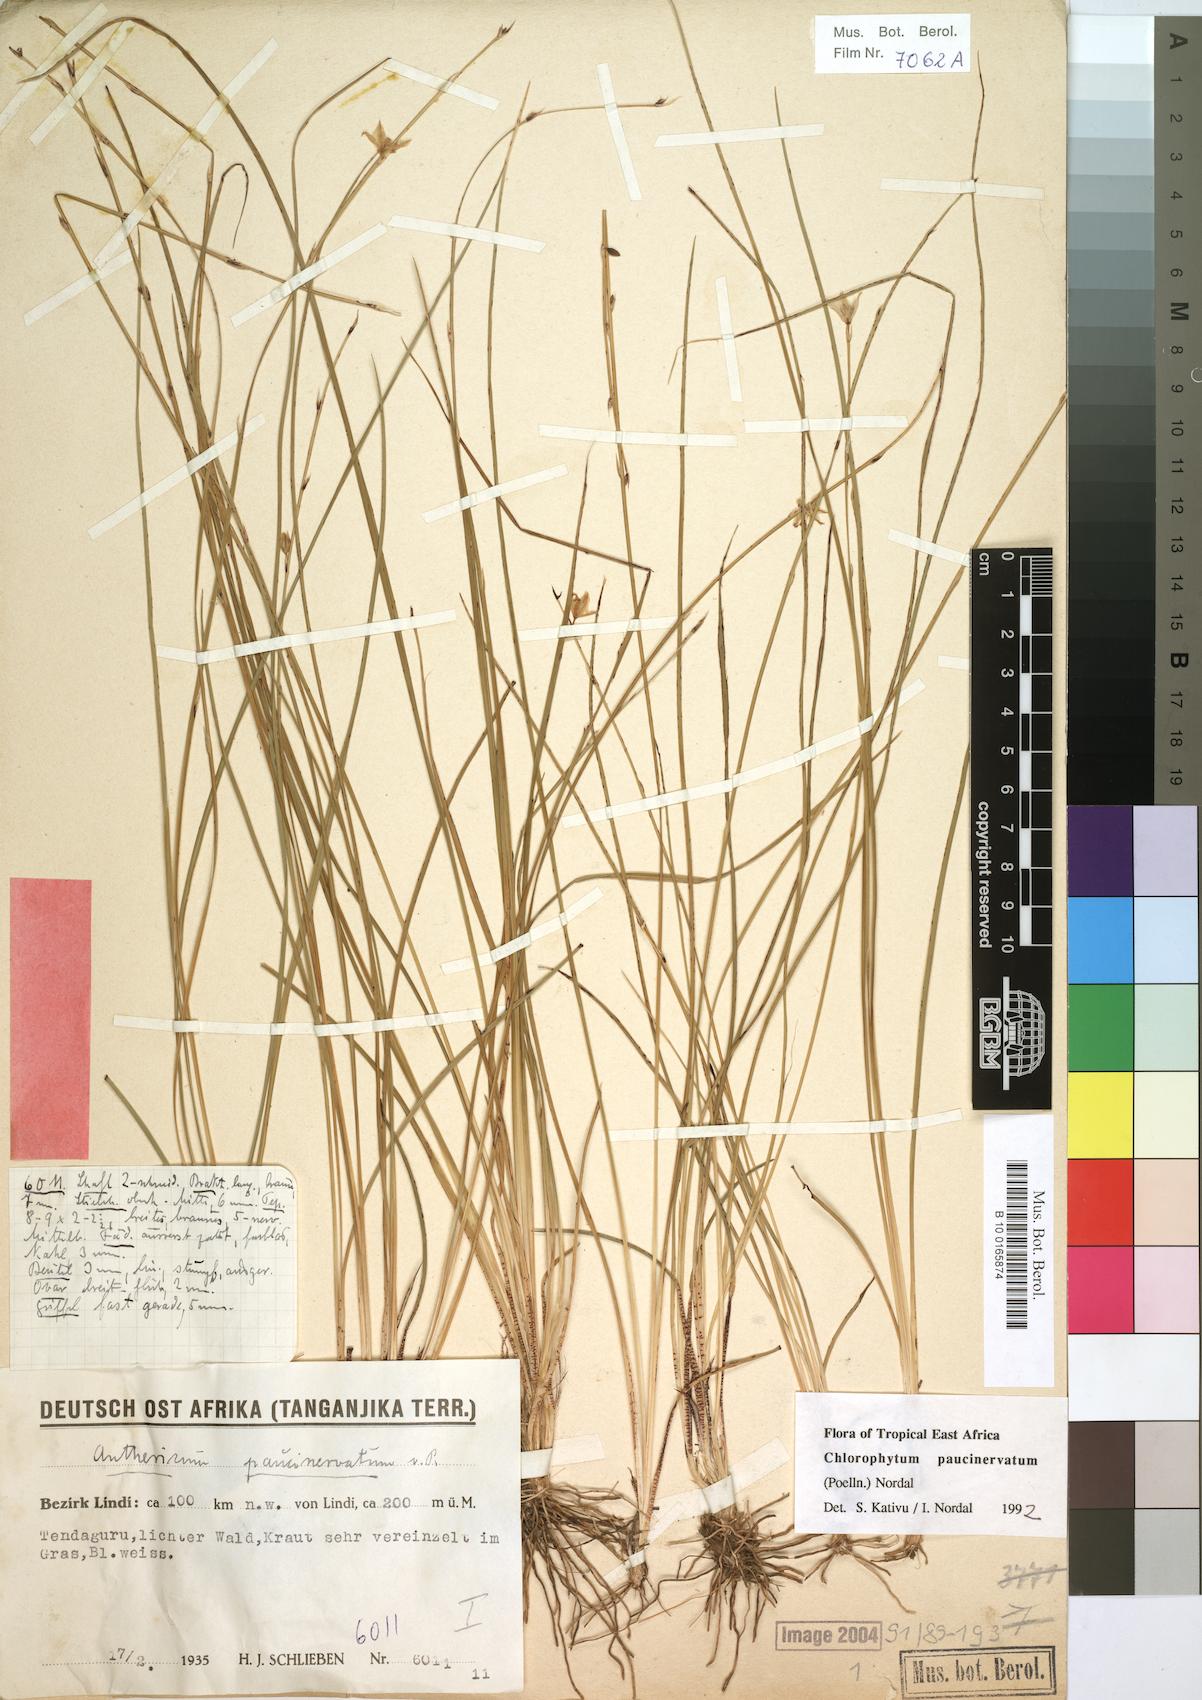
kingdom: Plantae
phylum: Tracheophyta
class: Liliopsida
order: Asparagales
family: Asparagaceae
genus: Chlorophytum
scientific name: Chlorophytum paucinervatum
